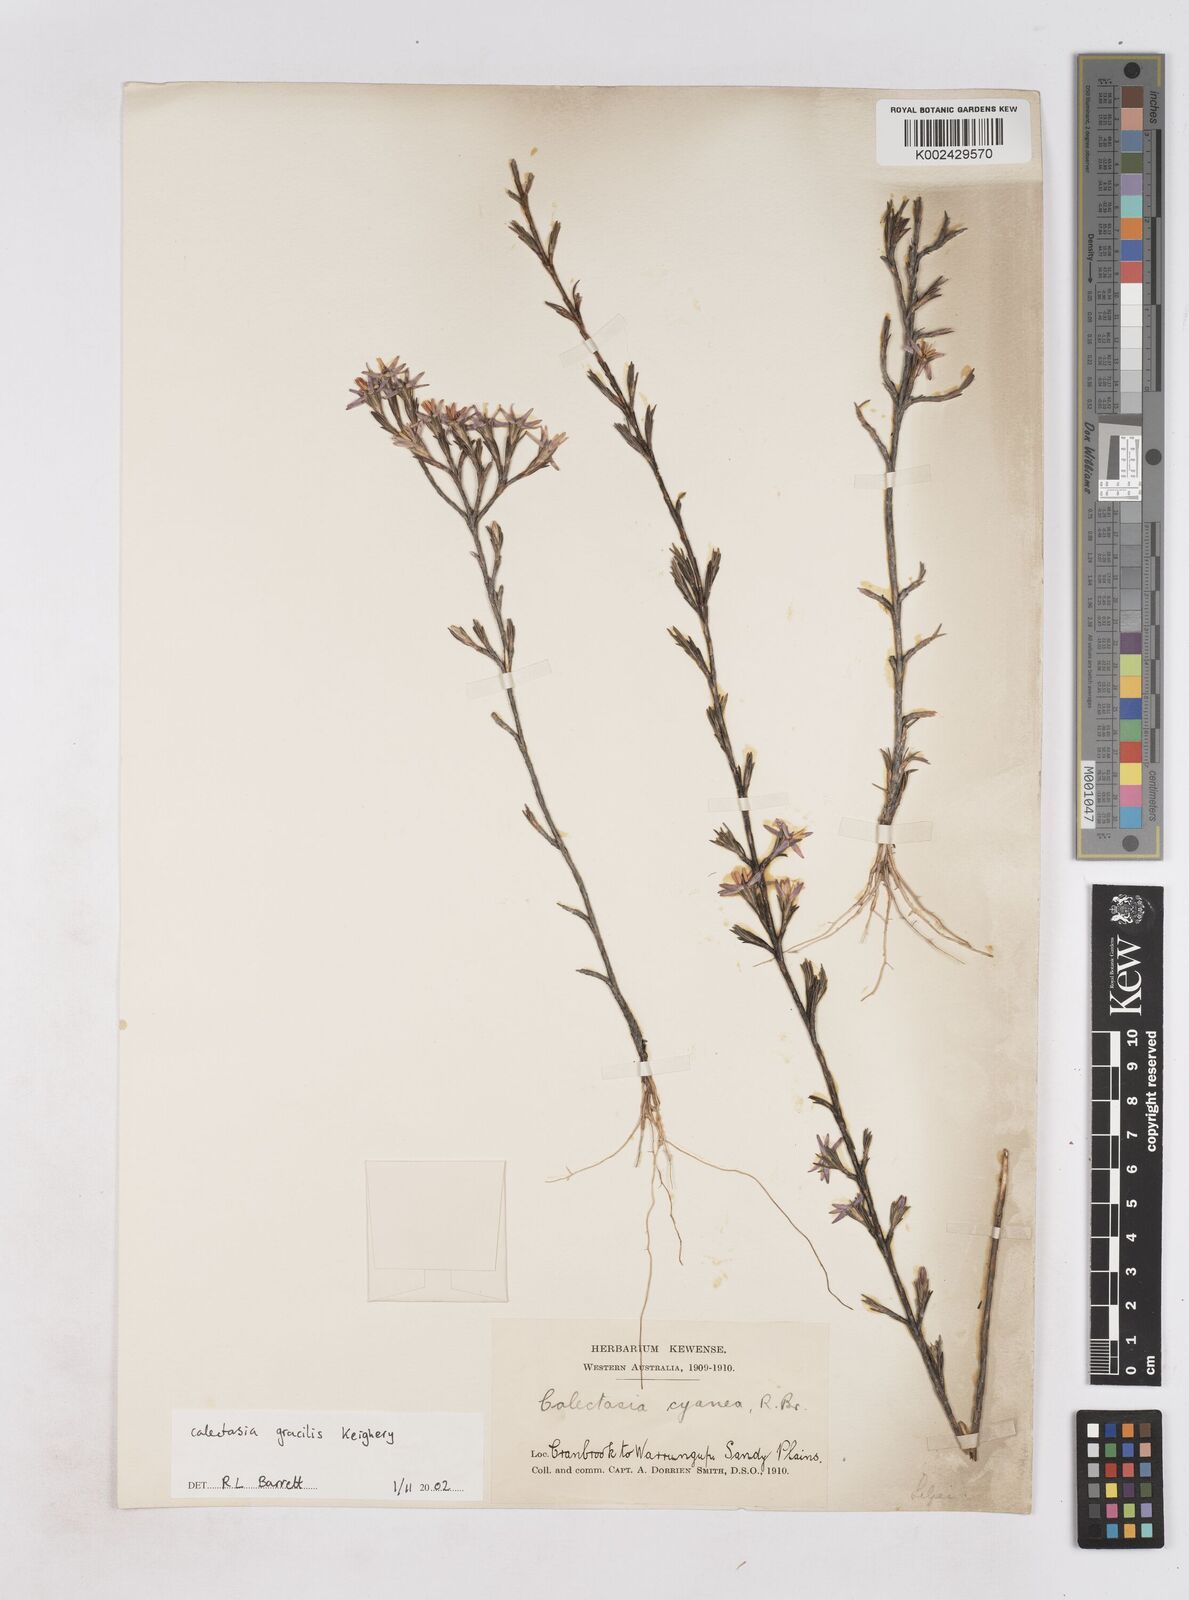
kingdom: Plantae
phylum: Tracheophyta
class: Liliopsida
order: Arecales
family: Dasypogonaceae
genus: Calectasia
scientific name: Calectasia gracilis
